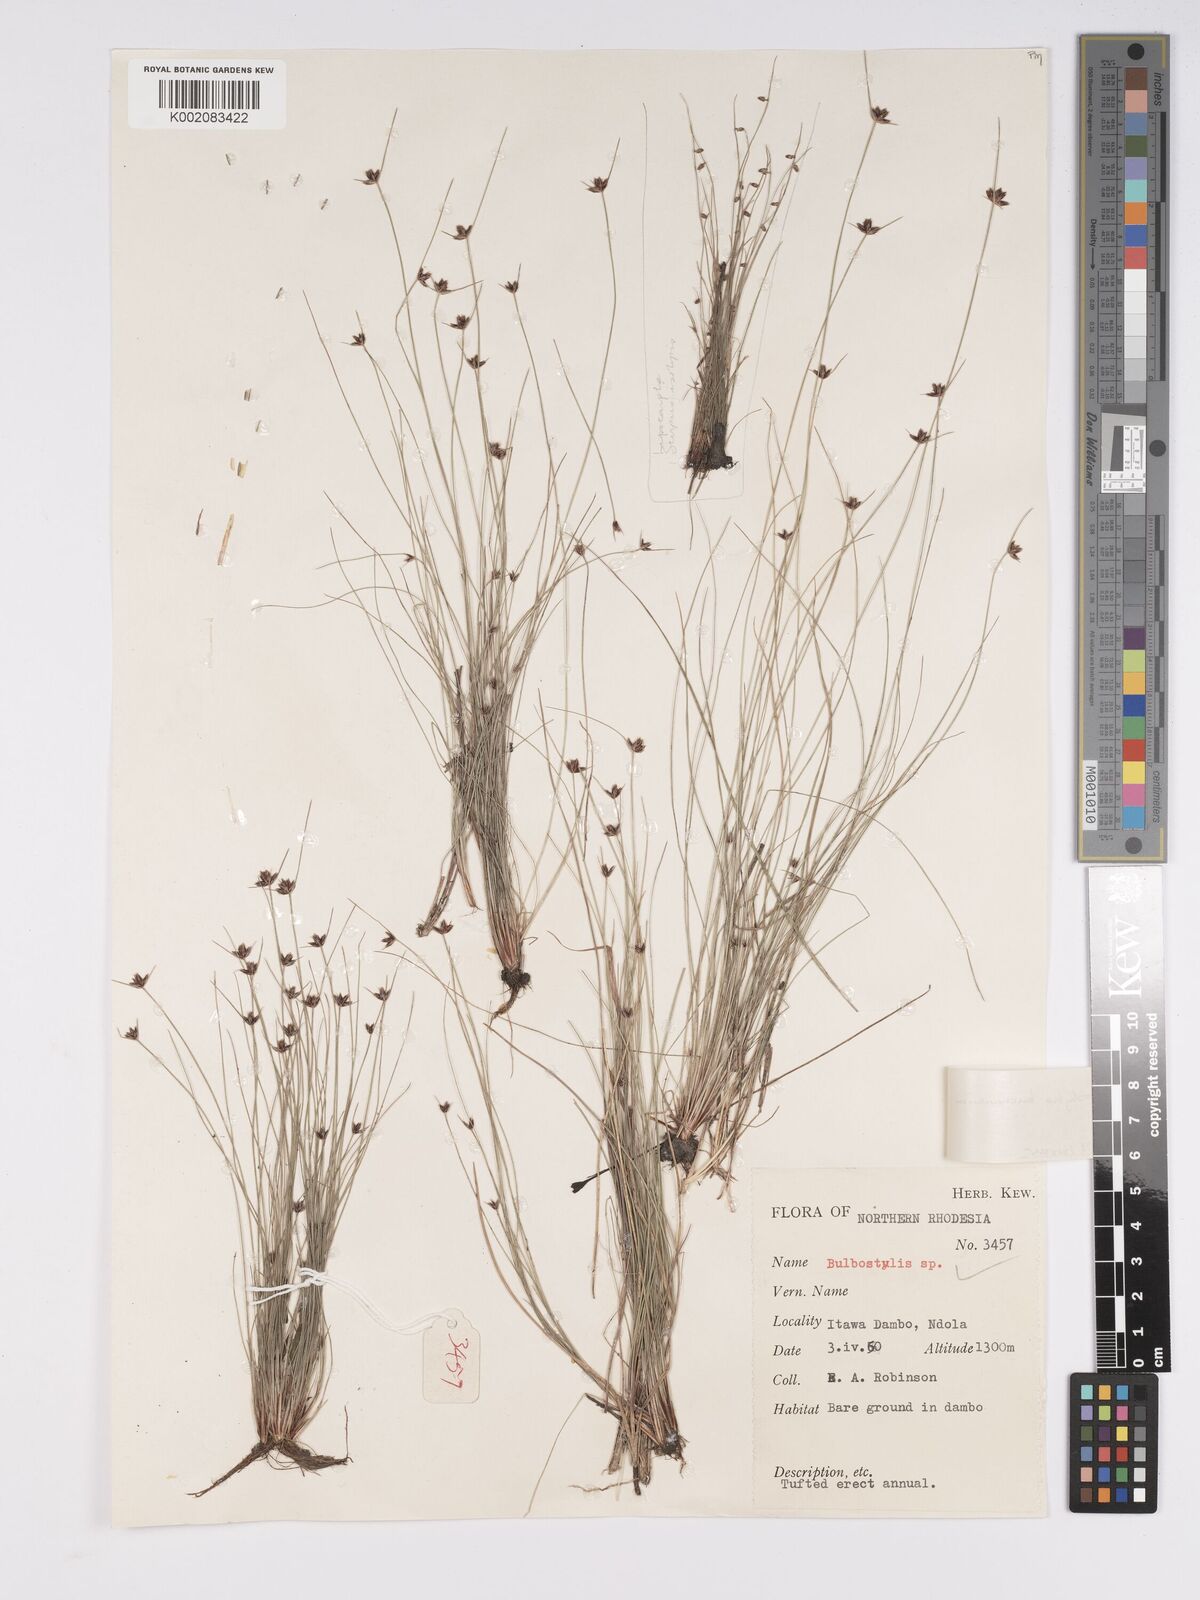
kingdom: Plantae
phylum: Tracheophyta
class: Liliopsida
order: Poales
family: Cyperaceae
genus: Bulbostylis
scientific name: Bulbostylis buchananii
